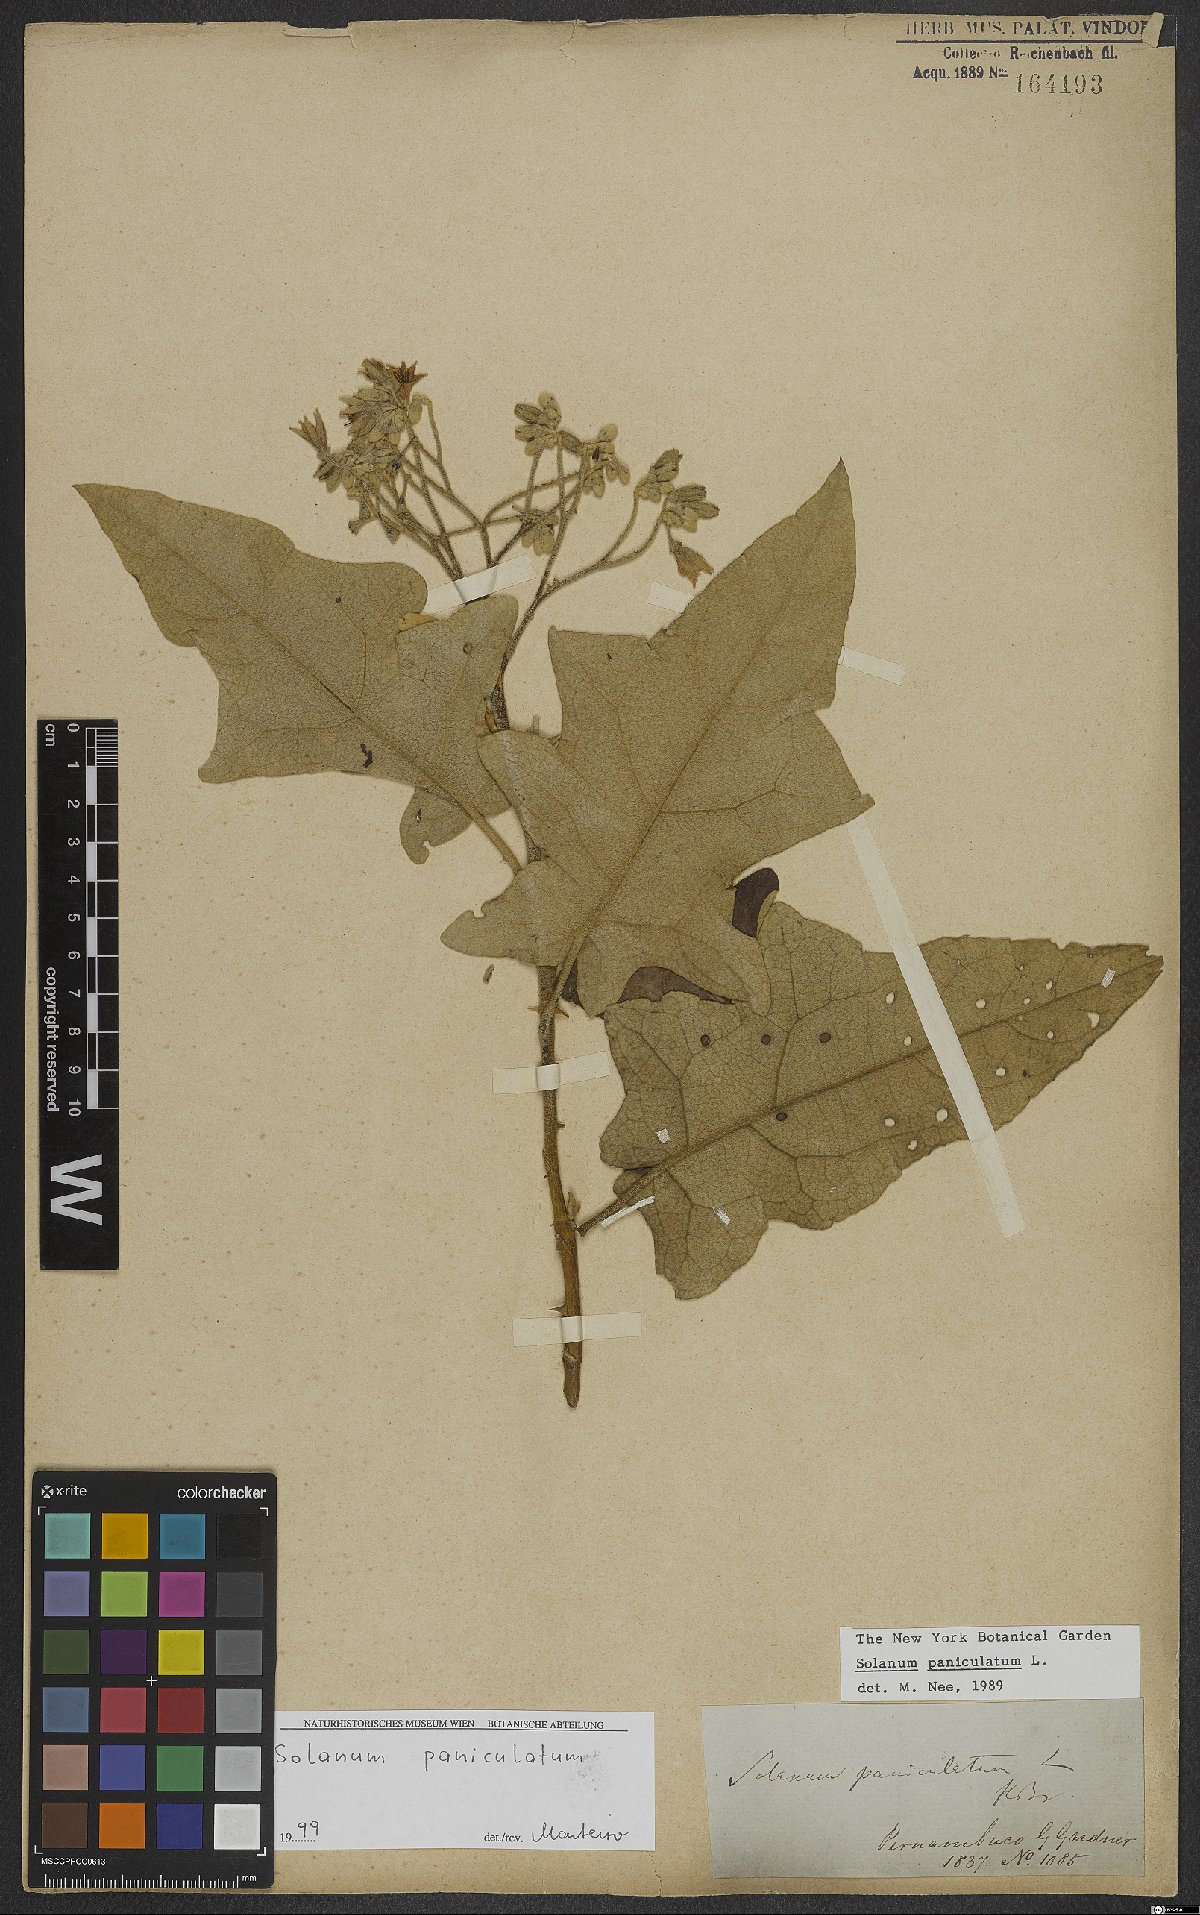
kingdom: Plantae
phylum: Tracheophyta
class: Magnoliopsida
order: Solanales
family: Solanaceae
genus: Solanum
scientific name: Solanum paniculatum
